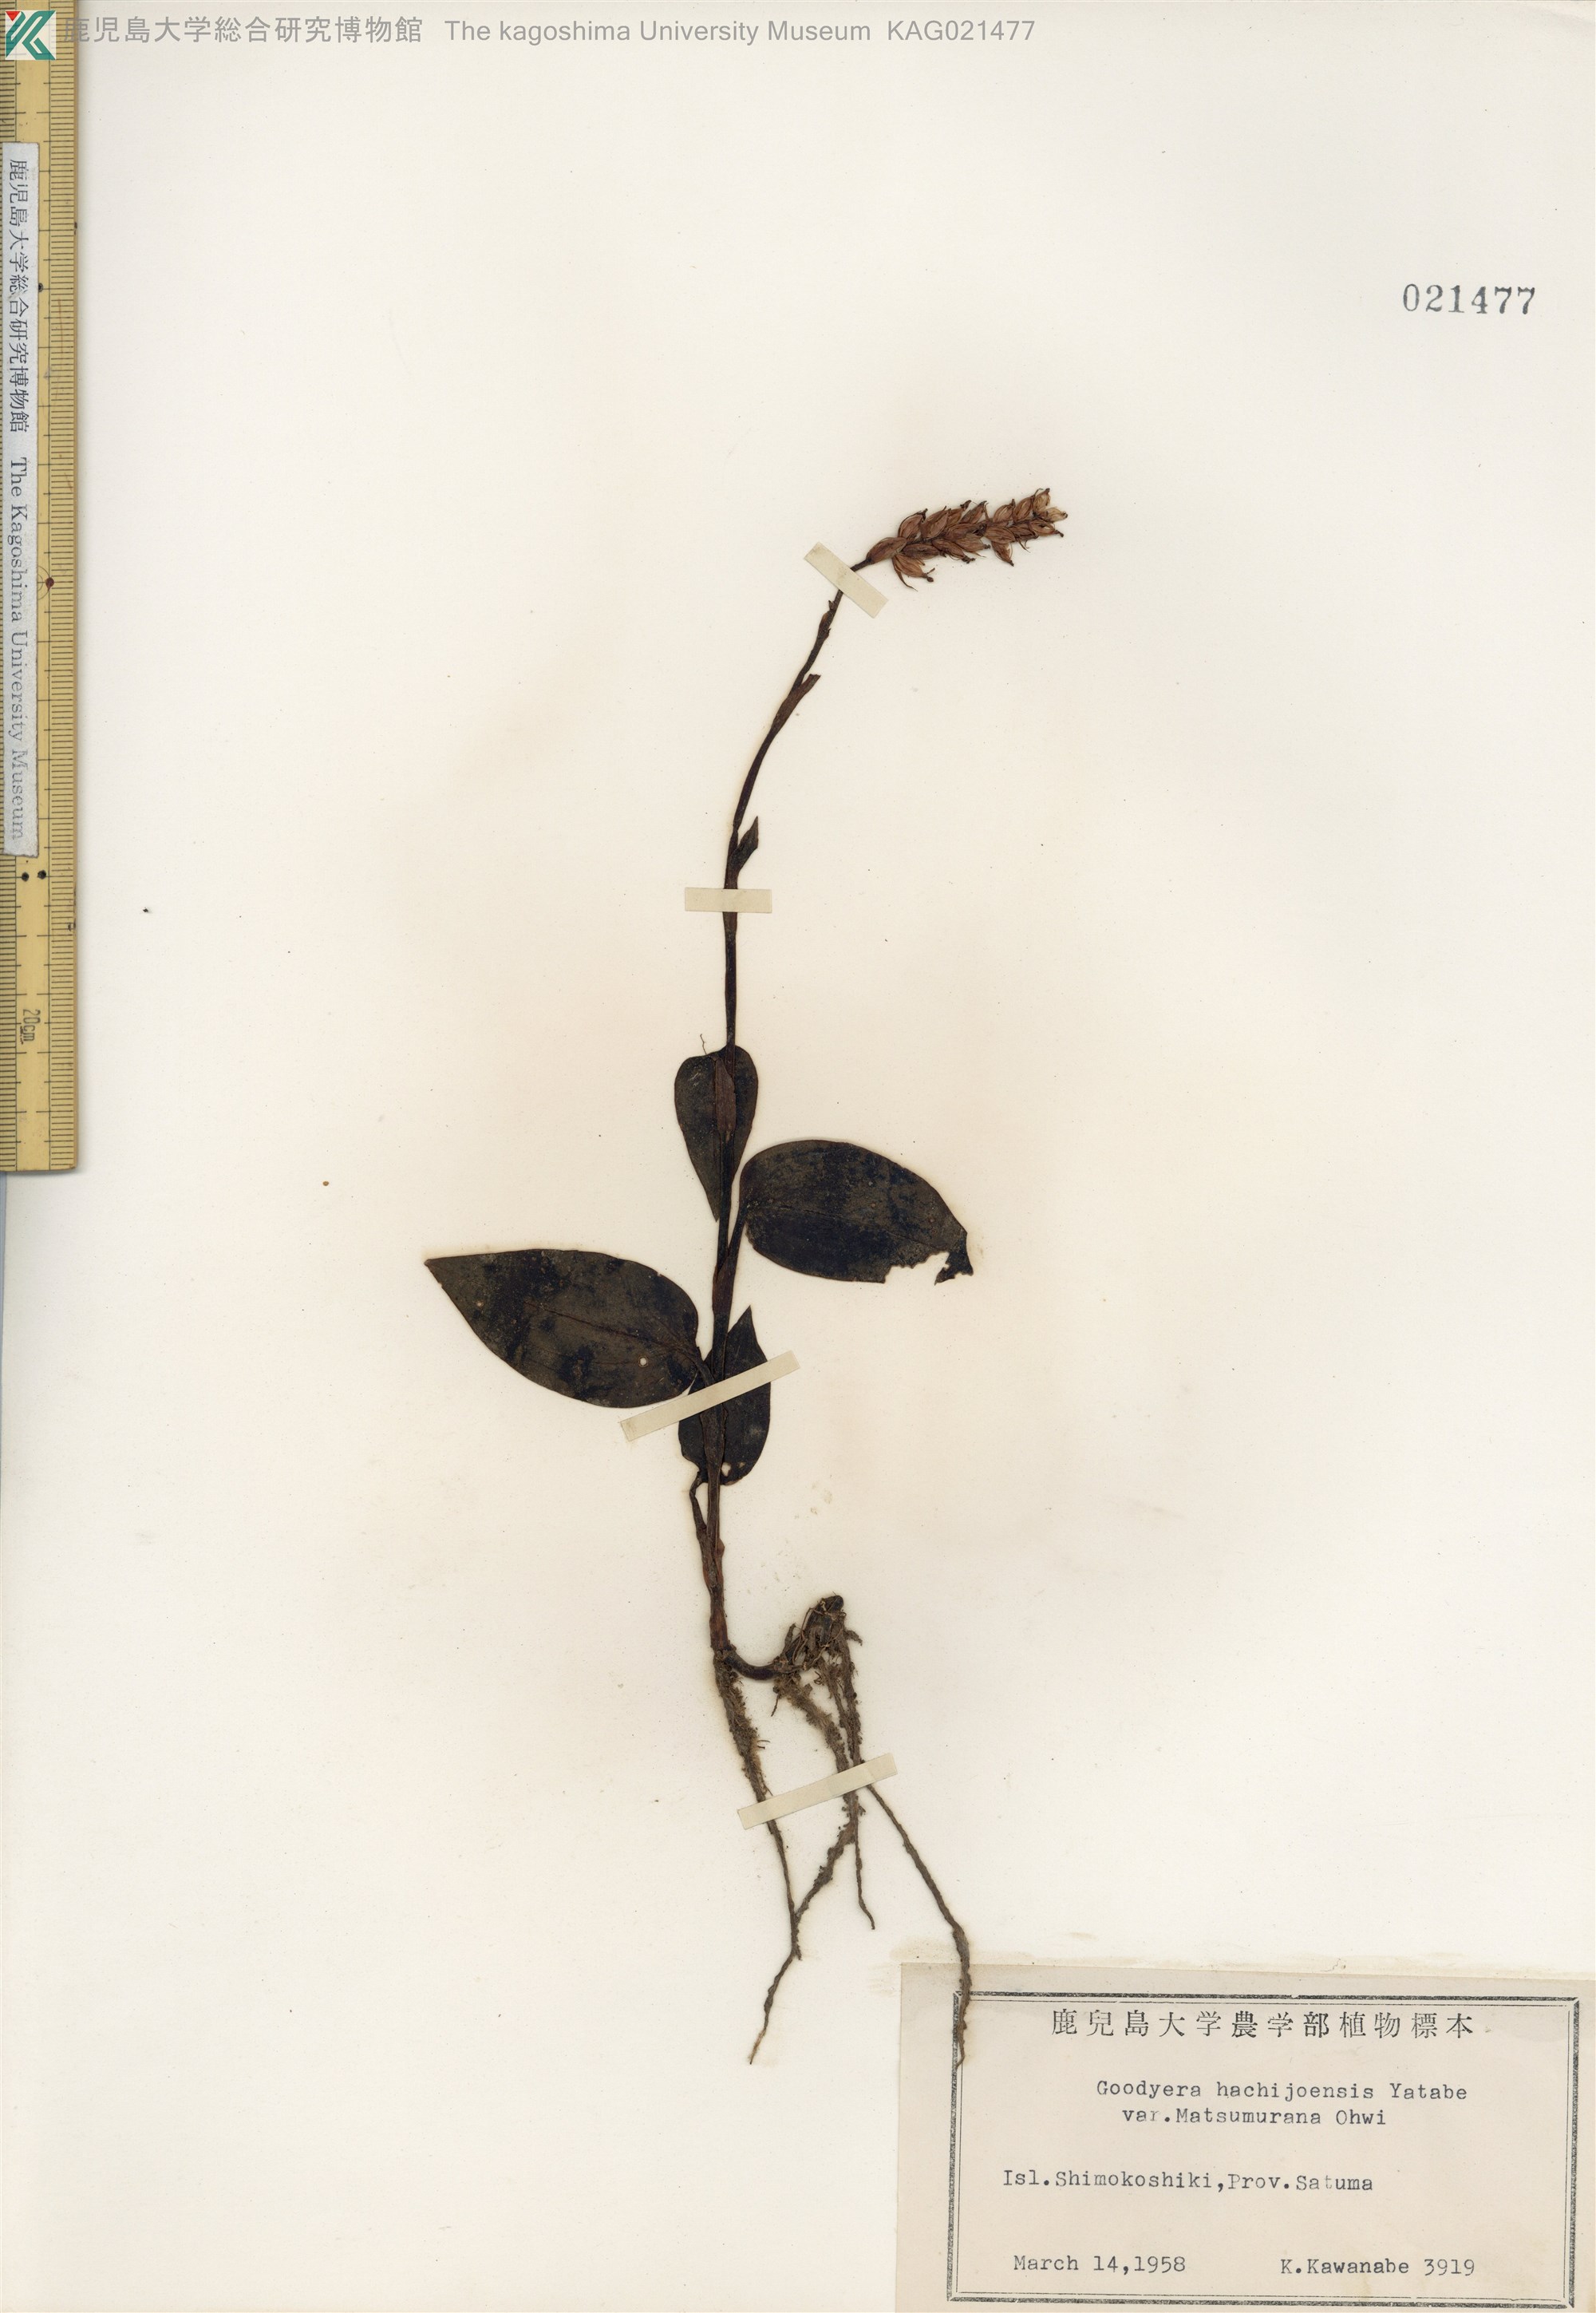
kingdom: Plantae
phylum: Tracheophyta
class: Liliopsida
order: Asparagales
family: Orchidaceae
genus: Goodyera
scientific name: Goodyera hachijoensis
